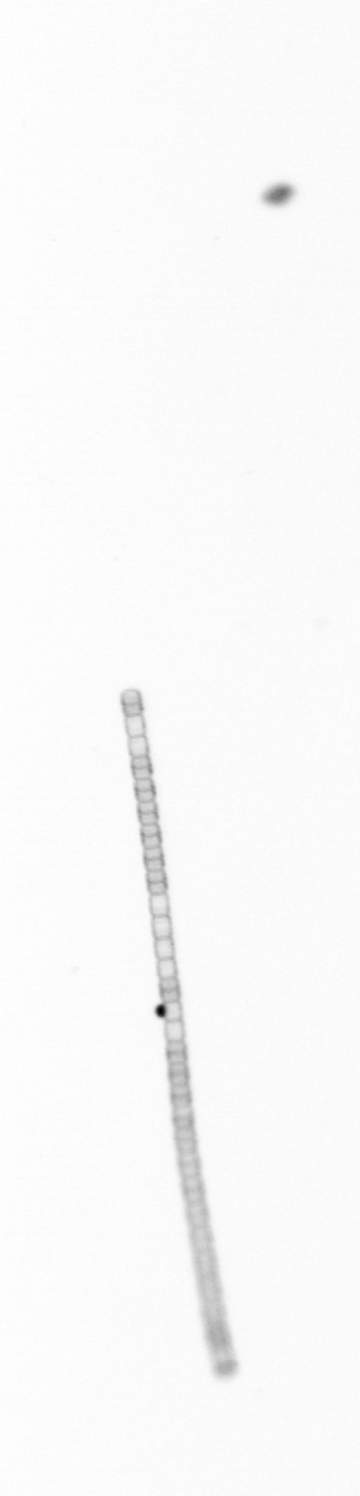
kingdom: Chromista
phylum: Ochrophyta
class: Bacillariophyceae
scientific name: Bacillariophyceae
